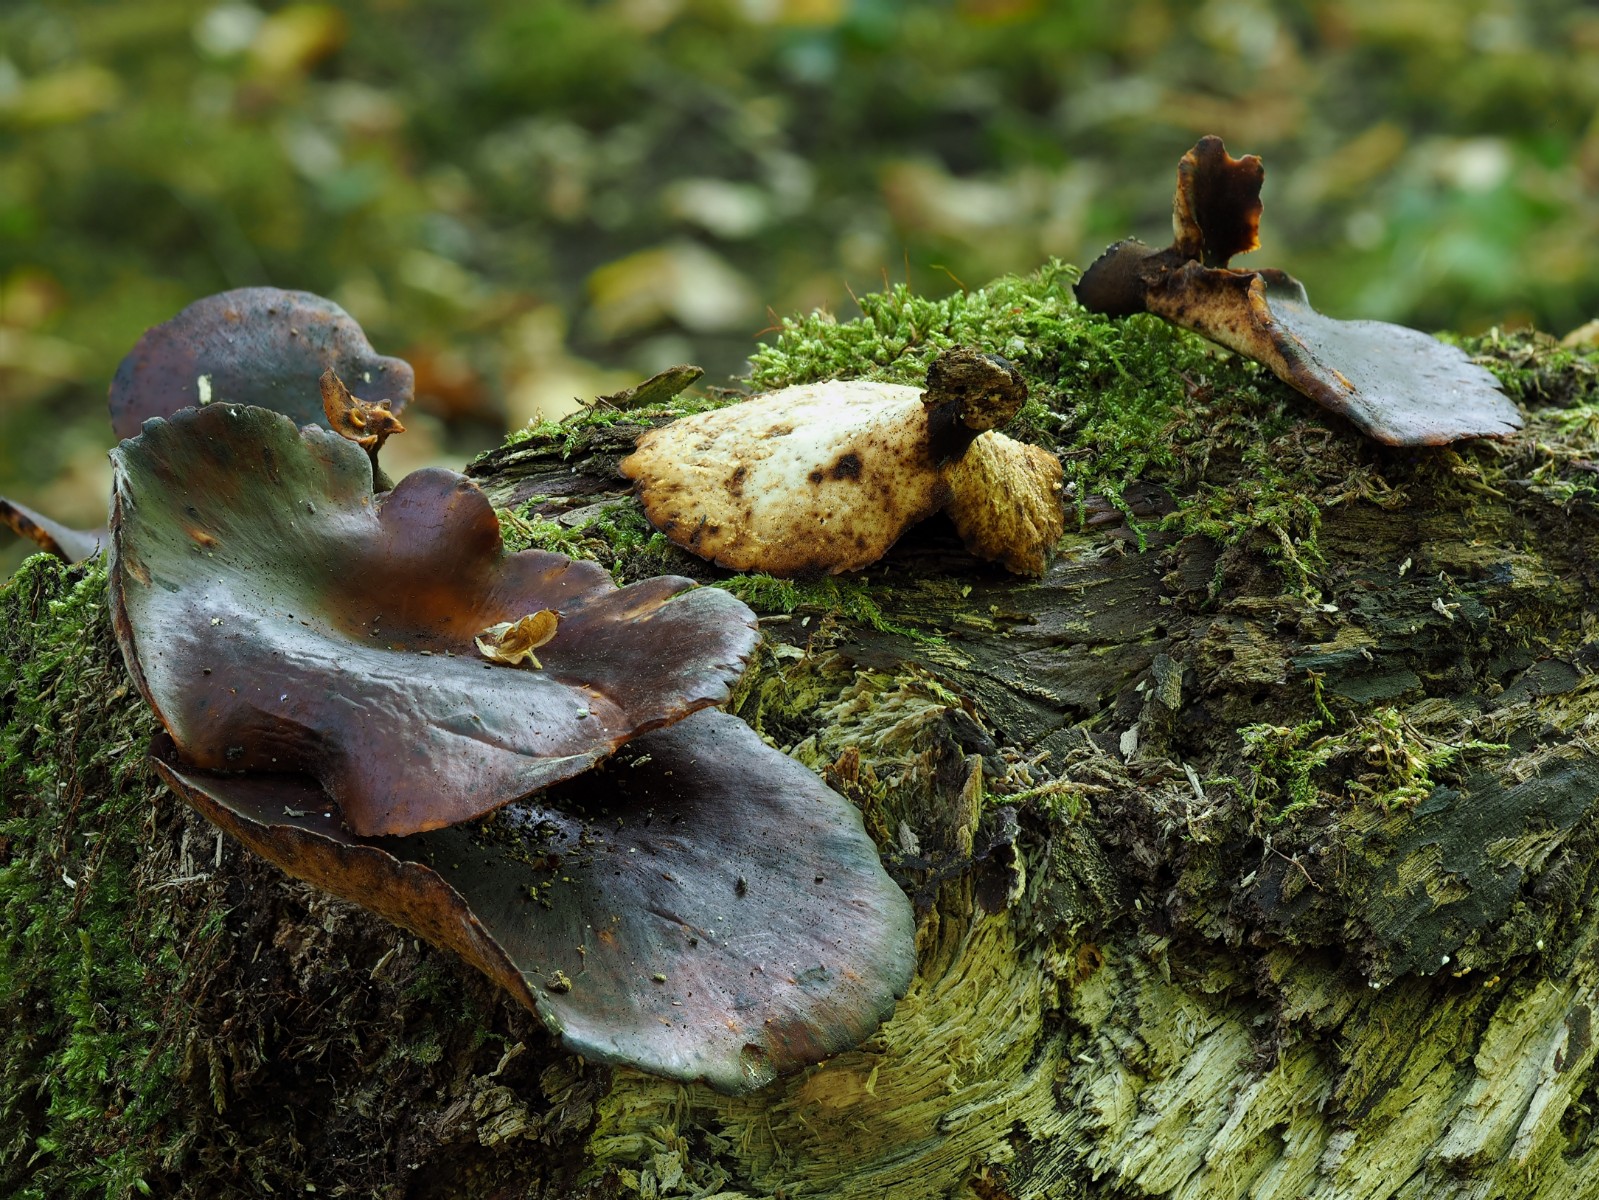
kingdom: Fungi
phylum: Basidiomycota
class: Agaricomycetes
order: Polyporales
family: Polyporaceae
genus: Picipes
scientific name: Picipes badius
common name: kastaniebrun stilkporesvamp
